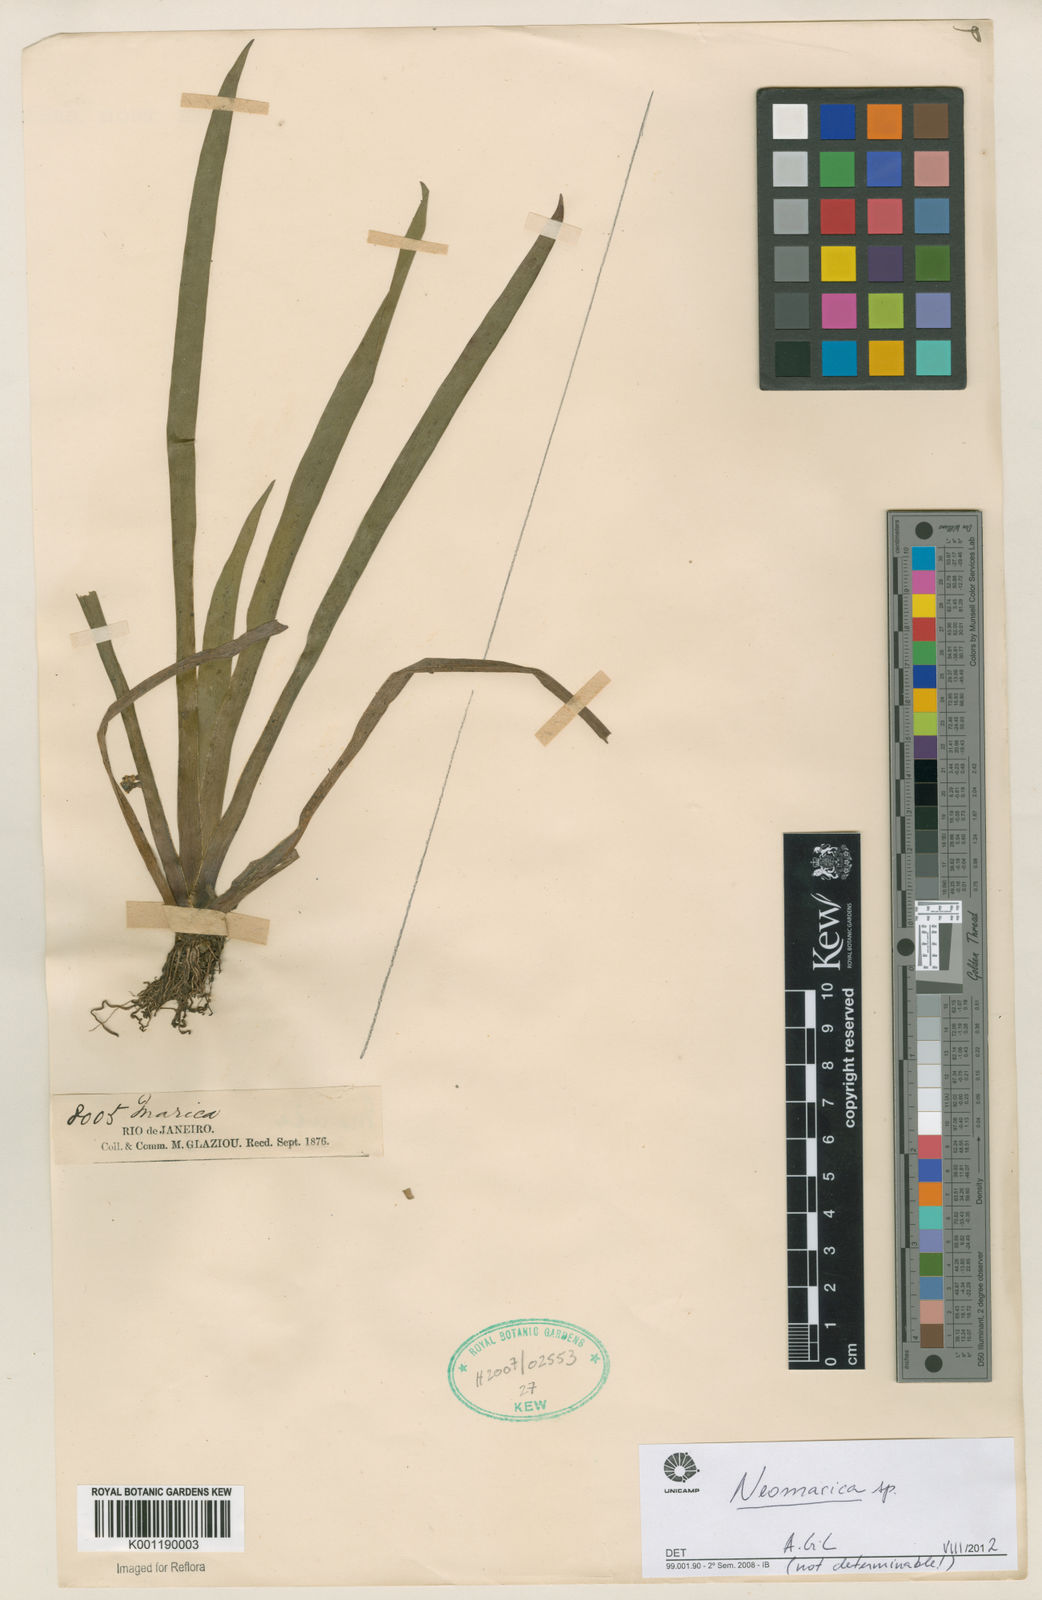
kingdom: Plantae
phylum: Tracheophyta
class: Liliopsida
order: Asparagales
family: Iridaceae
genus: Trimezia
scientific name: Trimezia
